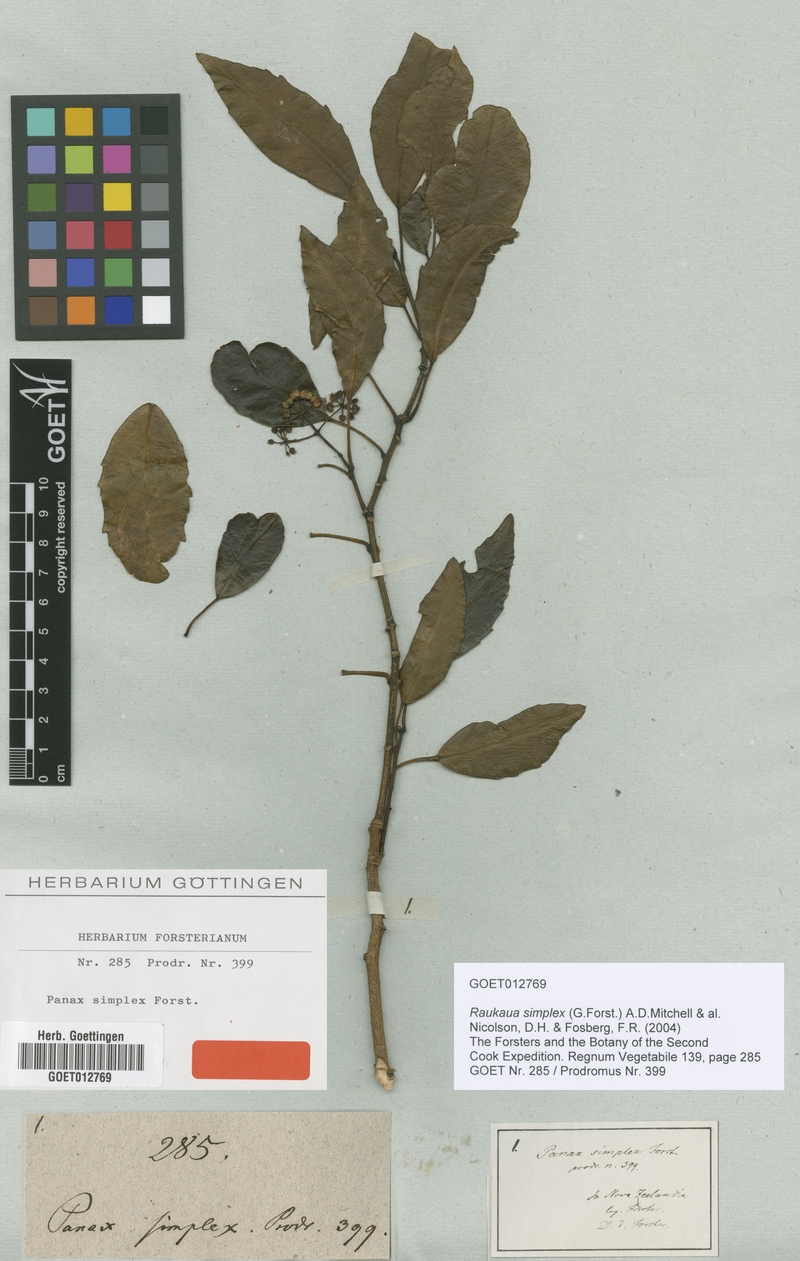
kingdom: Plantae
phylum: Tracheophyta
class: Magnoliopsida
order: Apiales
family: Araliaceae
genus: Raukaua
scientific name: Raukaua simplex
